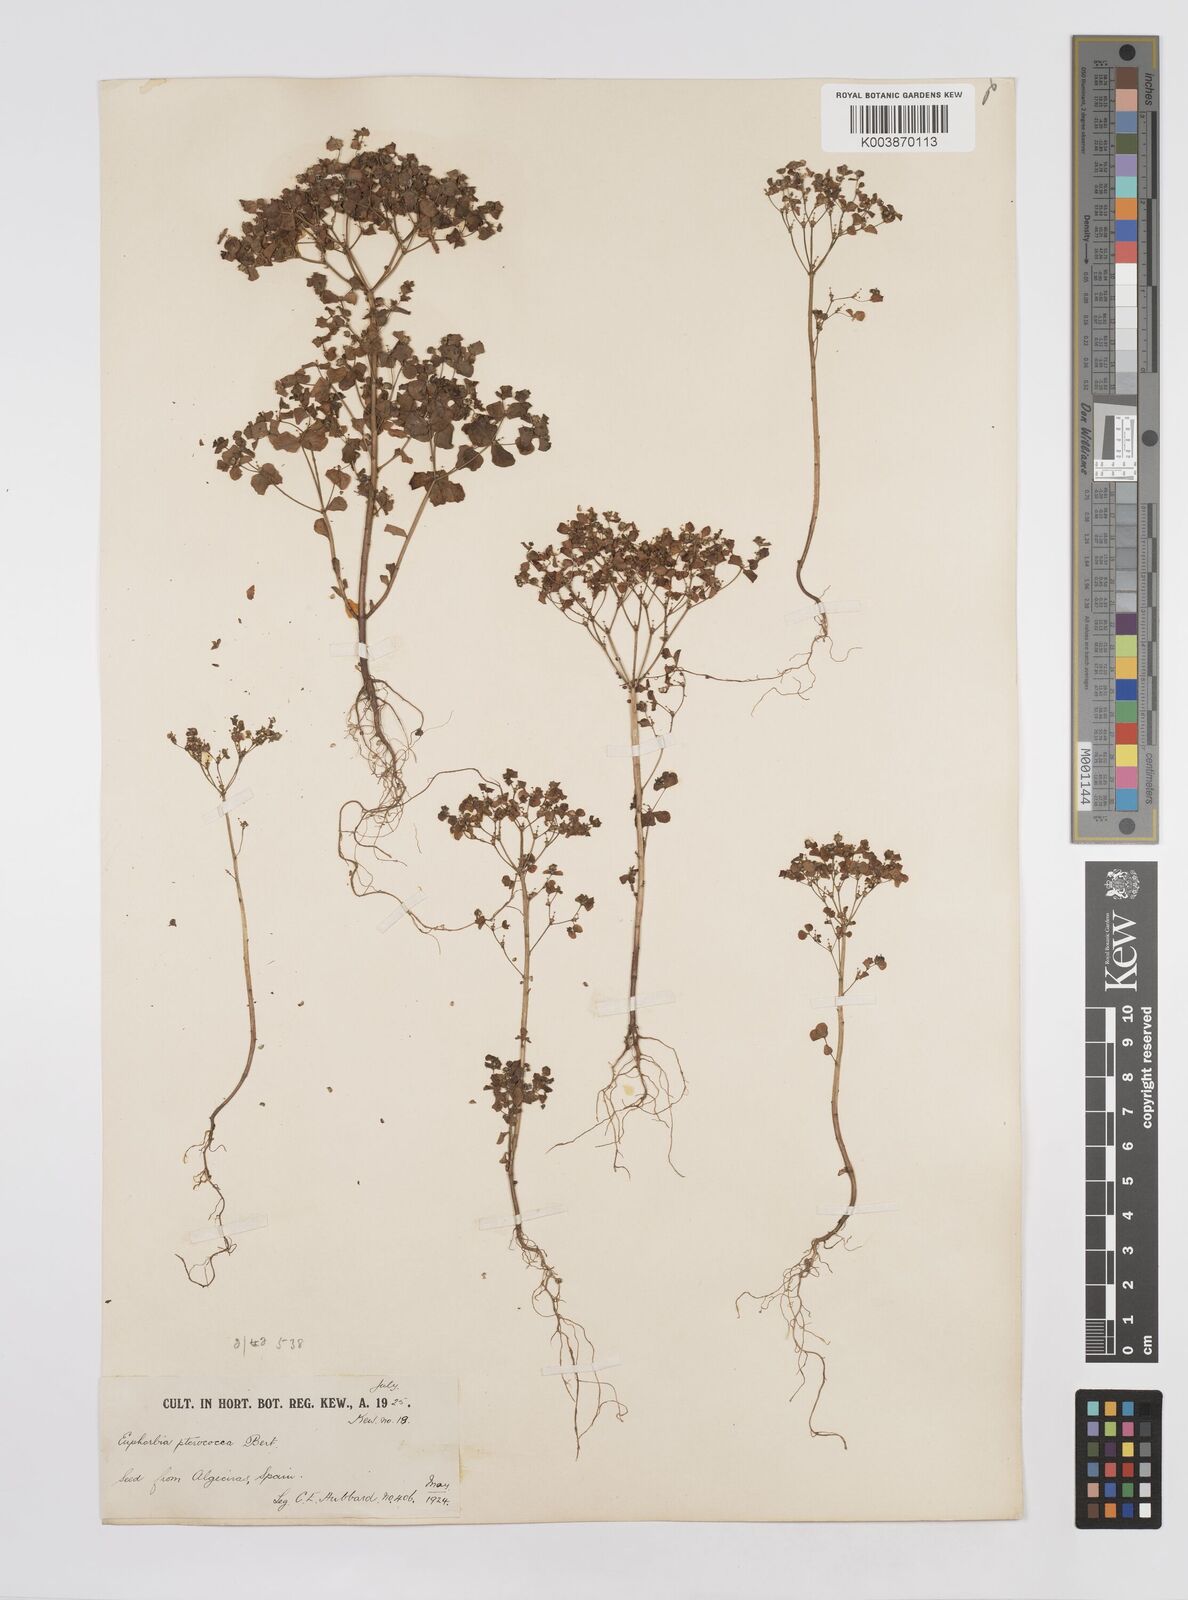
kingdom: Plantae
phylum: Tracheophyta
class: Magnoliopsida
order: Malpighiales
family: Euphorbiaceae
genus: Euphorbia
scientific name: Euphorbia pterococca
